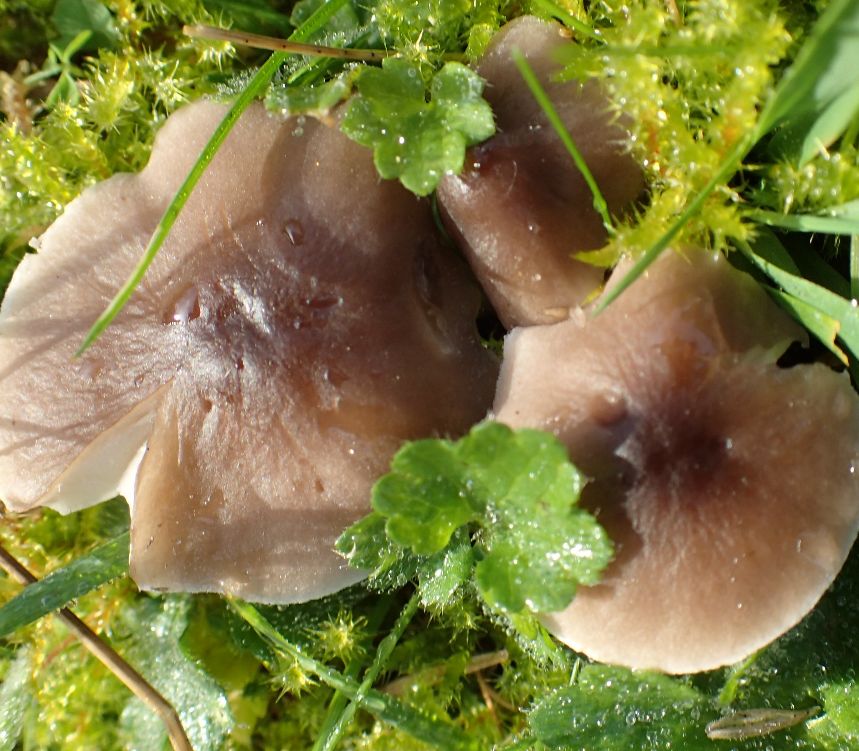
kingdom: Fungi
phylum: Basidiomycota
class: Agaricomycetes
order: Agaricales
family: Tricholomataceae
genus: Dermoloma
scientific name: Dermoloma cuneifolium
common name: eng-nonnehat
